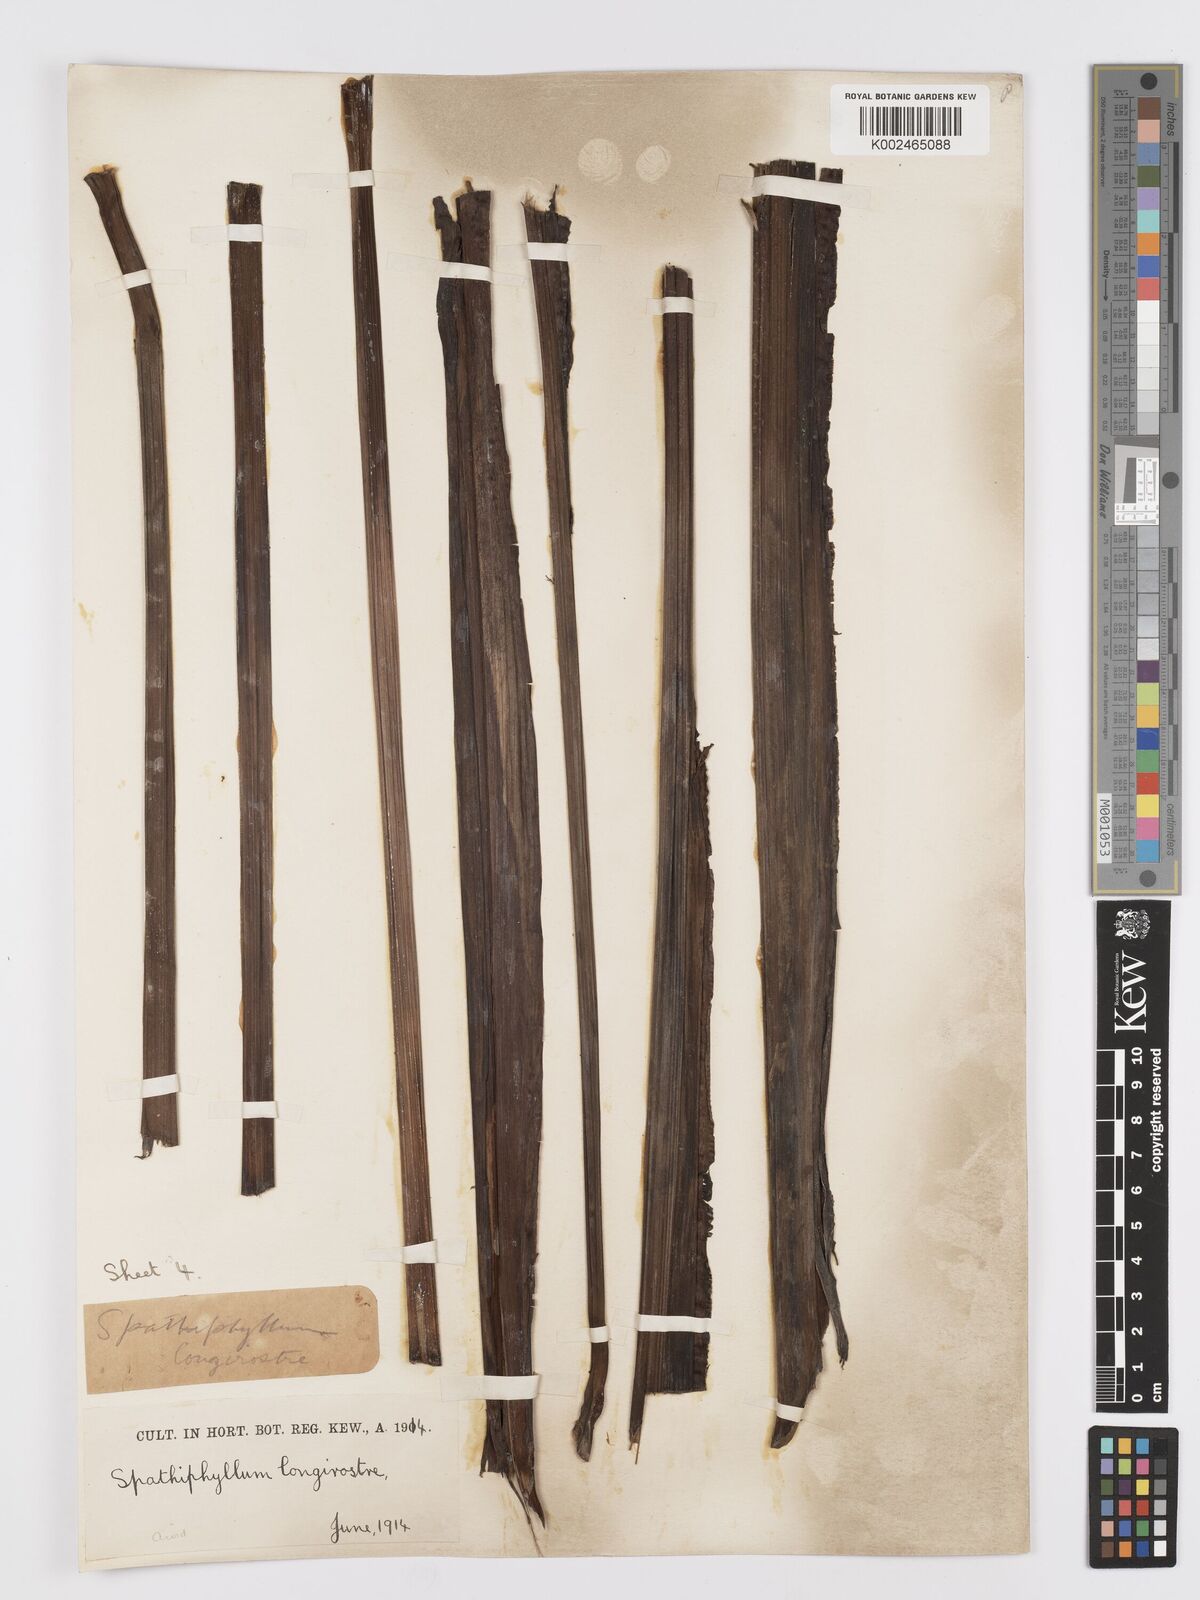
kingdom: Plantae
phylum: Tracheophyta
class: Liliopsida
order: Alismatales
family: Araceae
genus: Spathiphyllum
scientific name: Spathiphyllum cochlearispathum
